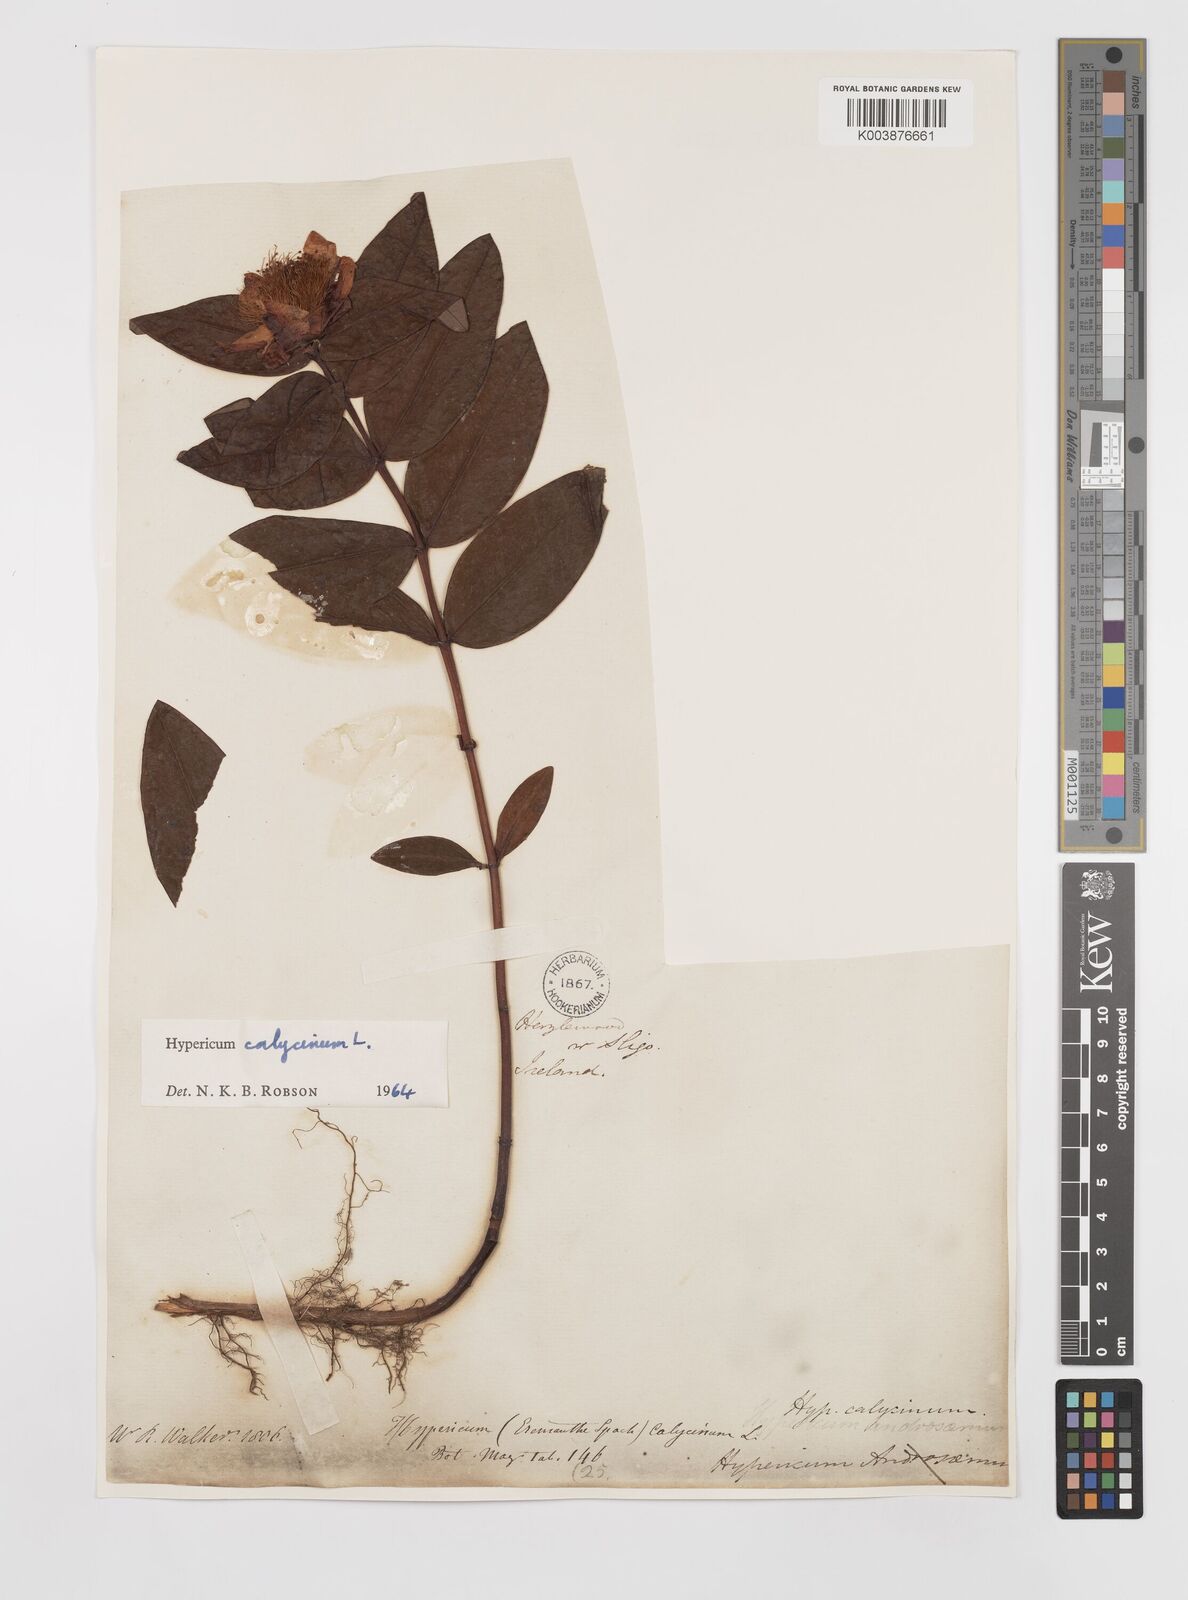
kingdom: Plantae
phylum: Tracheophyta
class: Magnoliopsida
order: Malpighiales
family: Hypericaceae
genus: Hypericum
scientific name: Hypericum calycinum
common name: Rose-of-sharon
